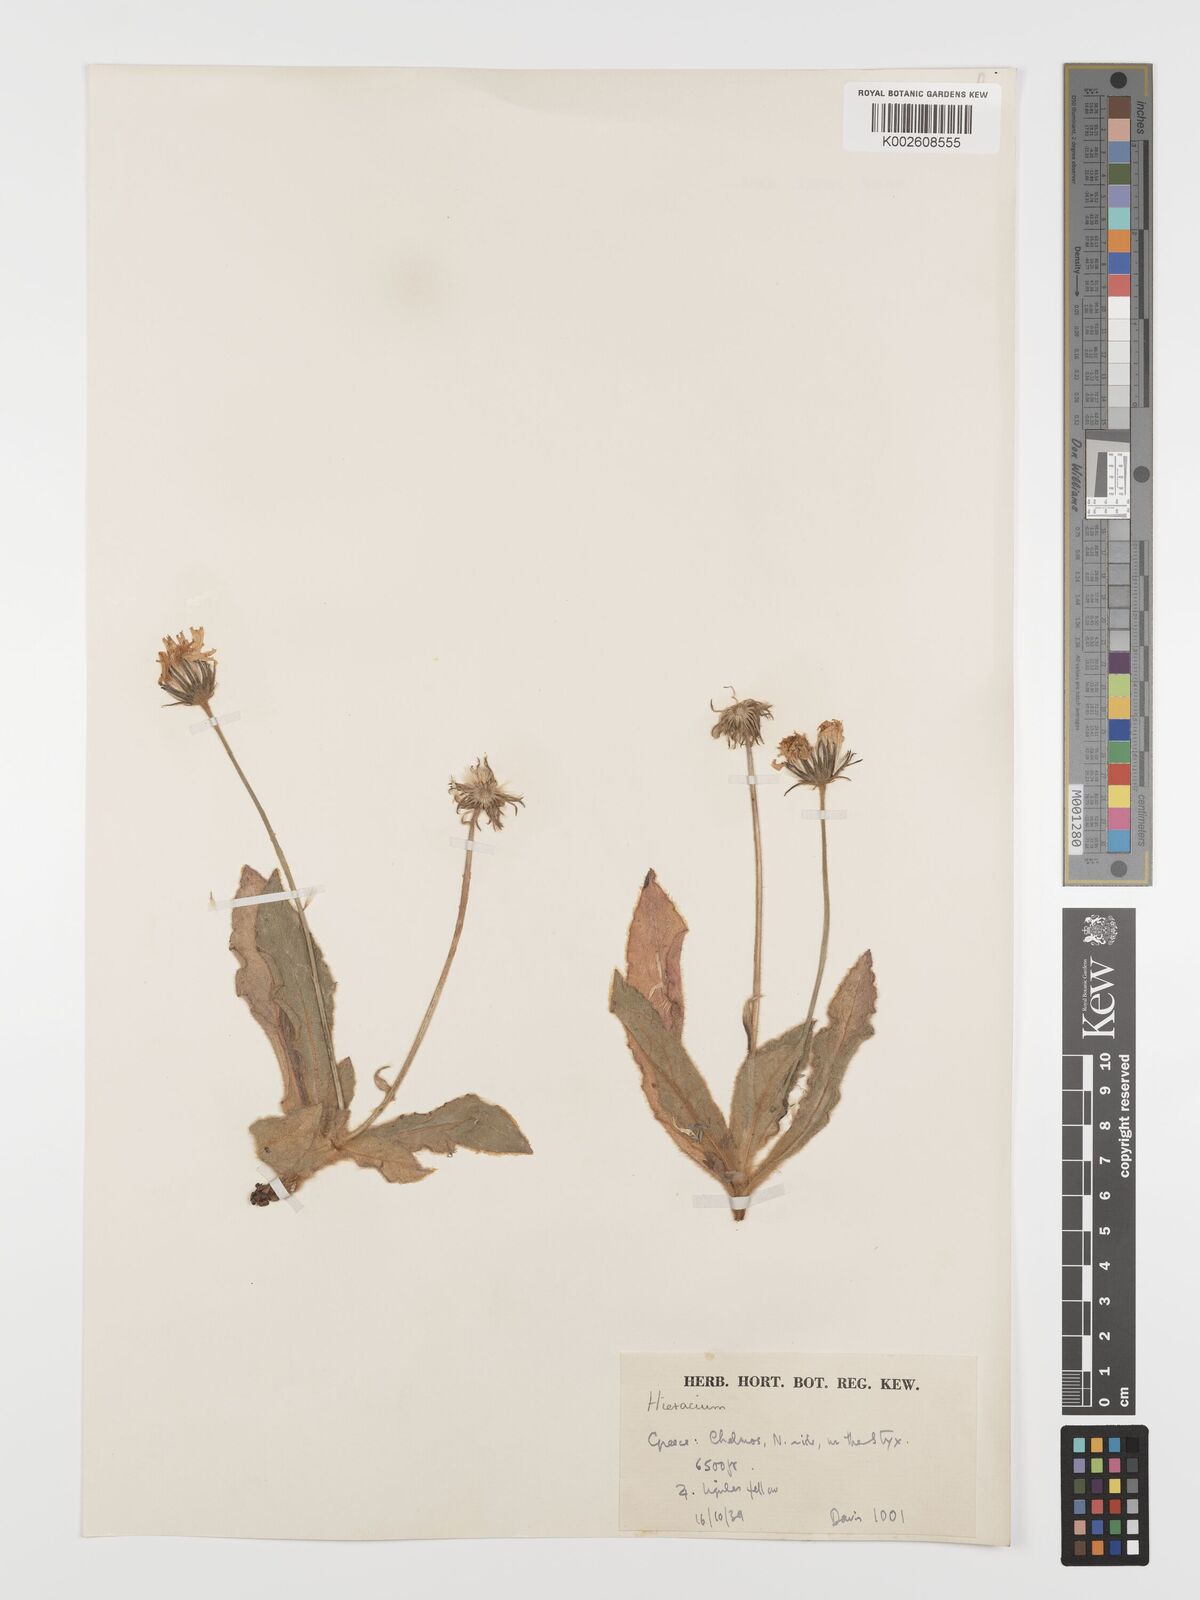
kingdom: Plantae
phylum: Tracheophyta
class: Magnoliopsida
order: Asterales
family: Asteraceae
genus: Hieracium
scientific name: Hieracium pannosum
